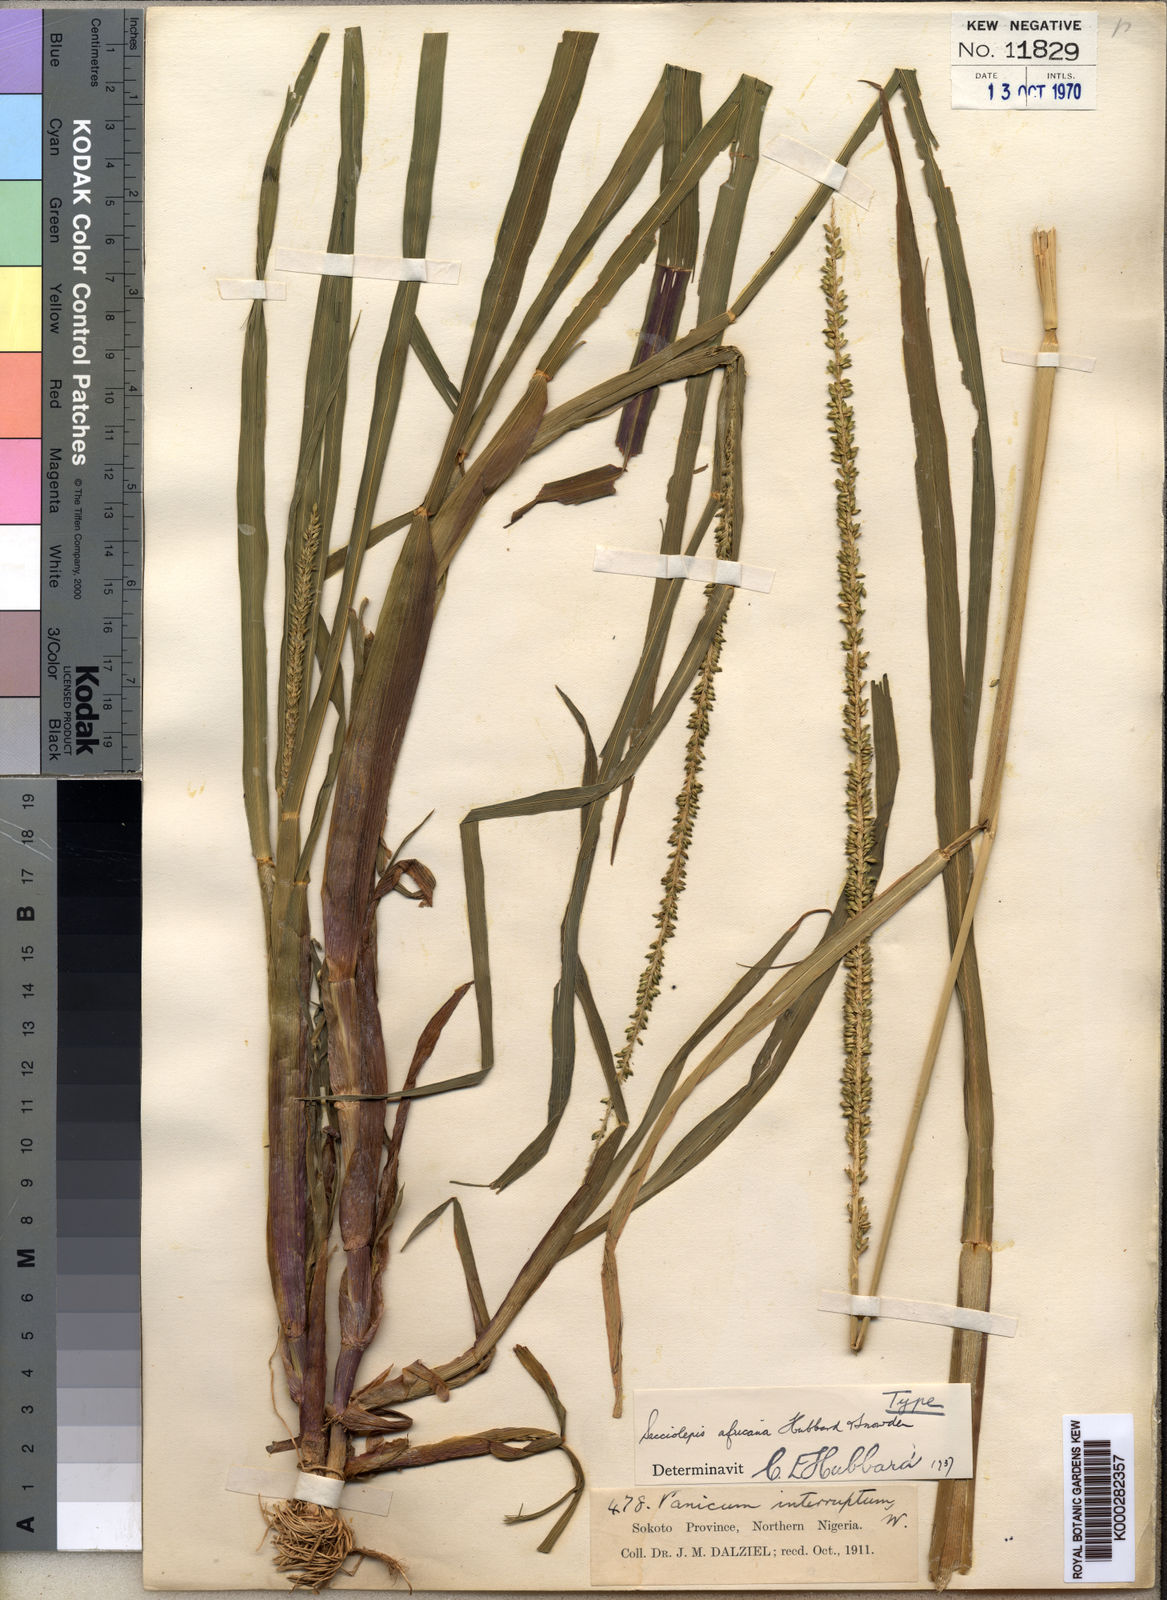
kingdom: Plantae
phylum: Tracheophyta
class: Liliopsida
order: Poales
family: Poaceae
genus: Sacciolepis
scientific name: Sacciolepis africana
